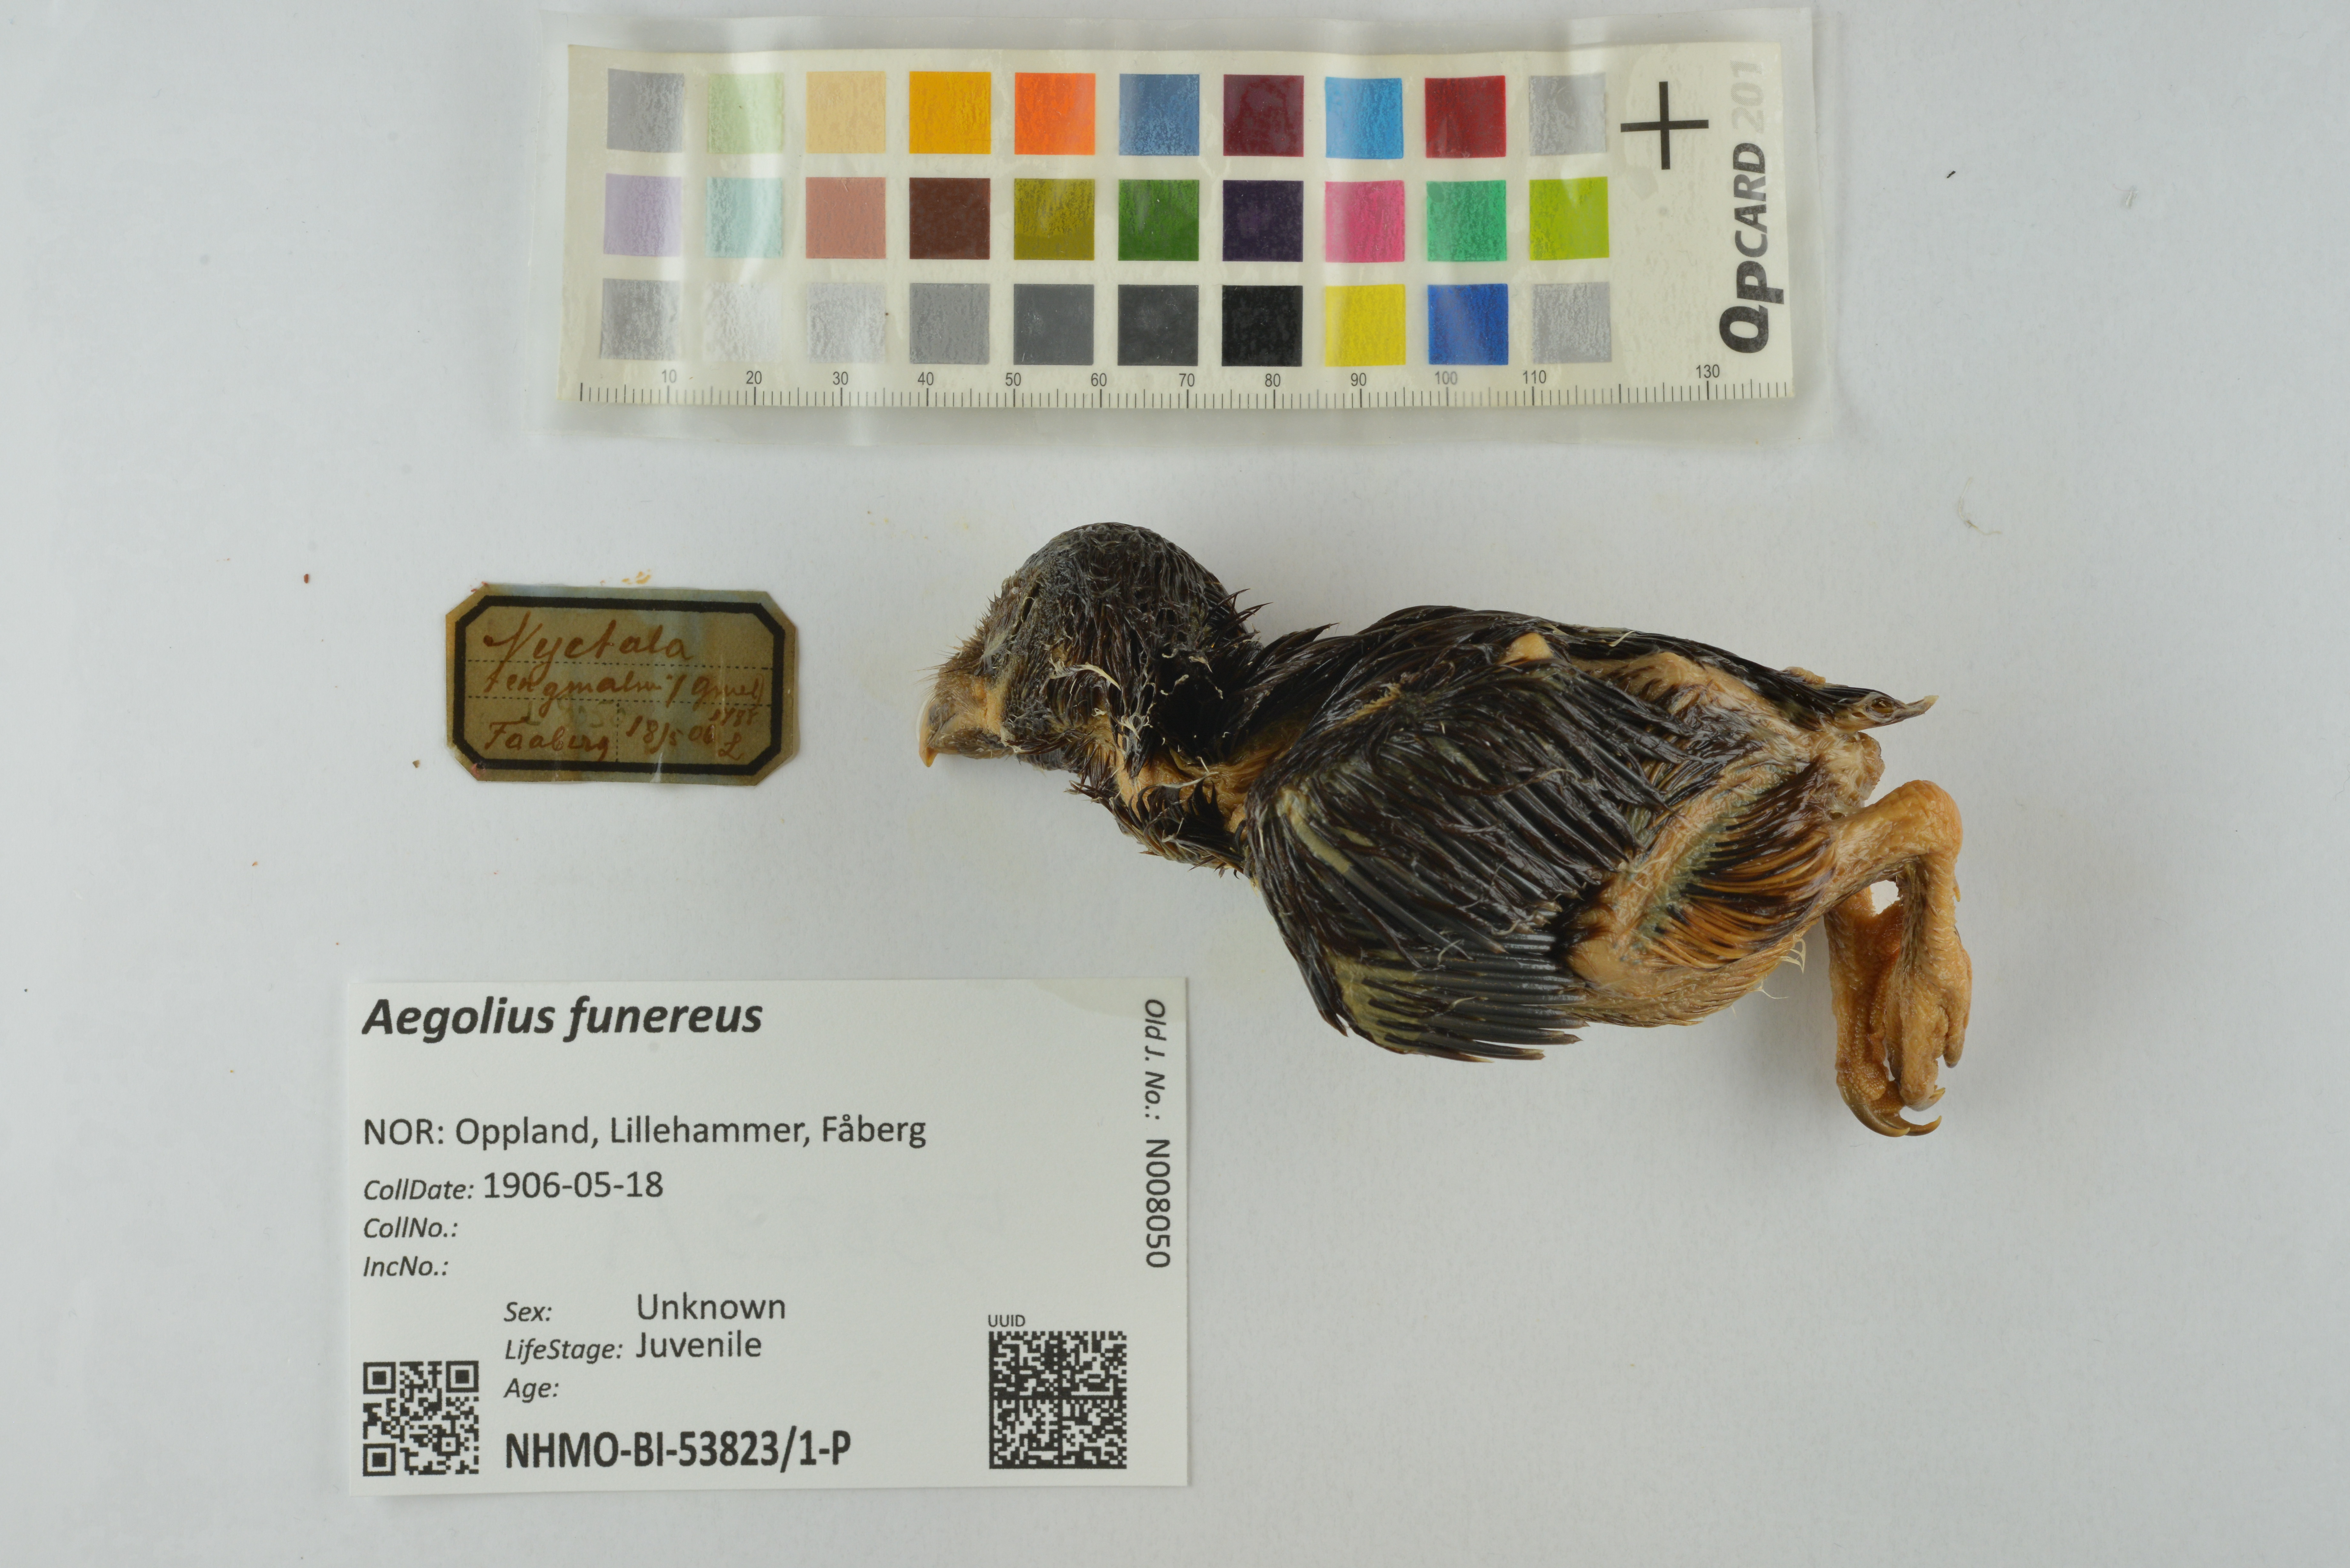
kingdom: Animalia
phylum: Chordata
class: Aves
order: Strigiformes
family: Strigidae
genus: Aegolius
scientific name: Aegolius funereus
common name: Boreal owl
